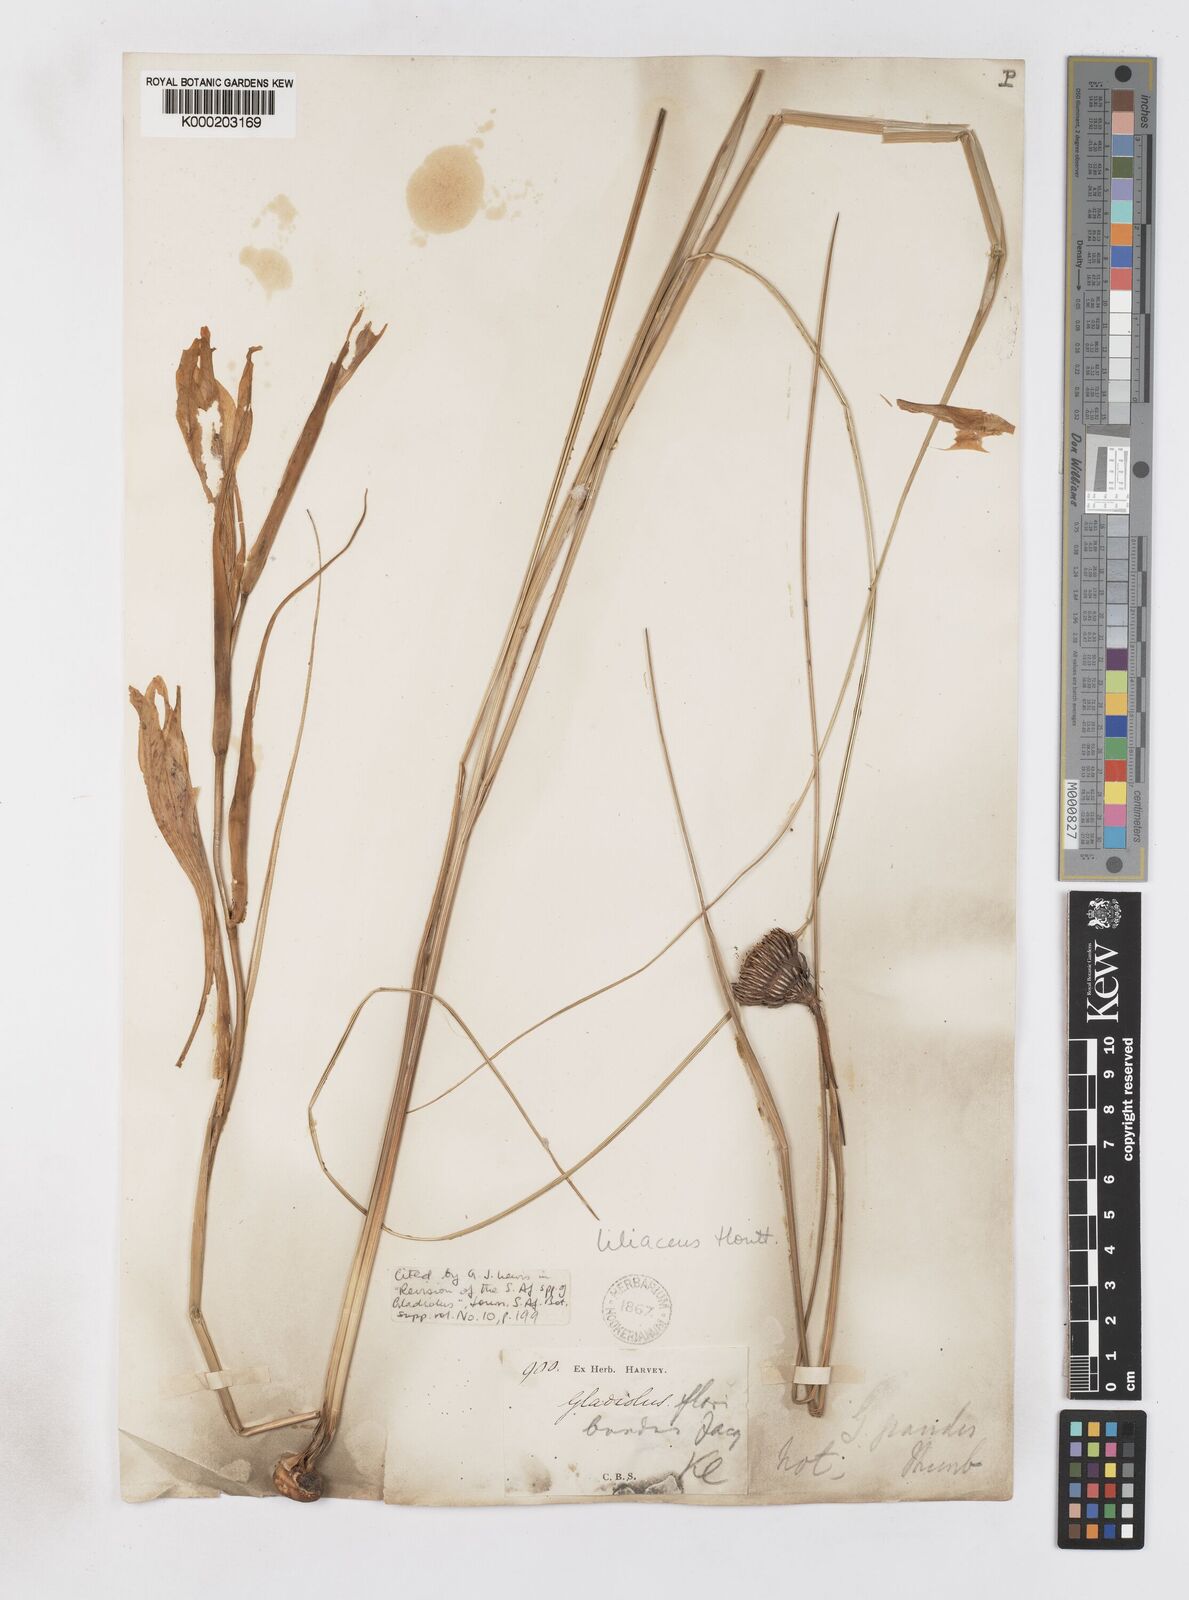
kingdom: Plantae
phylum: Tracheophyta
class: Liliopsida
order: Asparagales
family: Iridaceae
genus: Gladiolus
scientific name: Gladiolus liliaceus
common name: Large brown afrikaner
